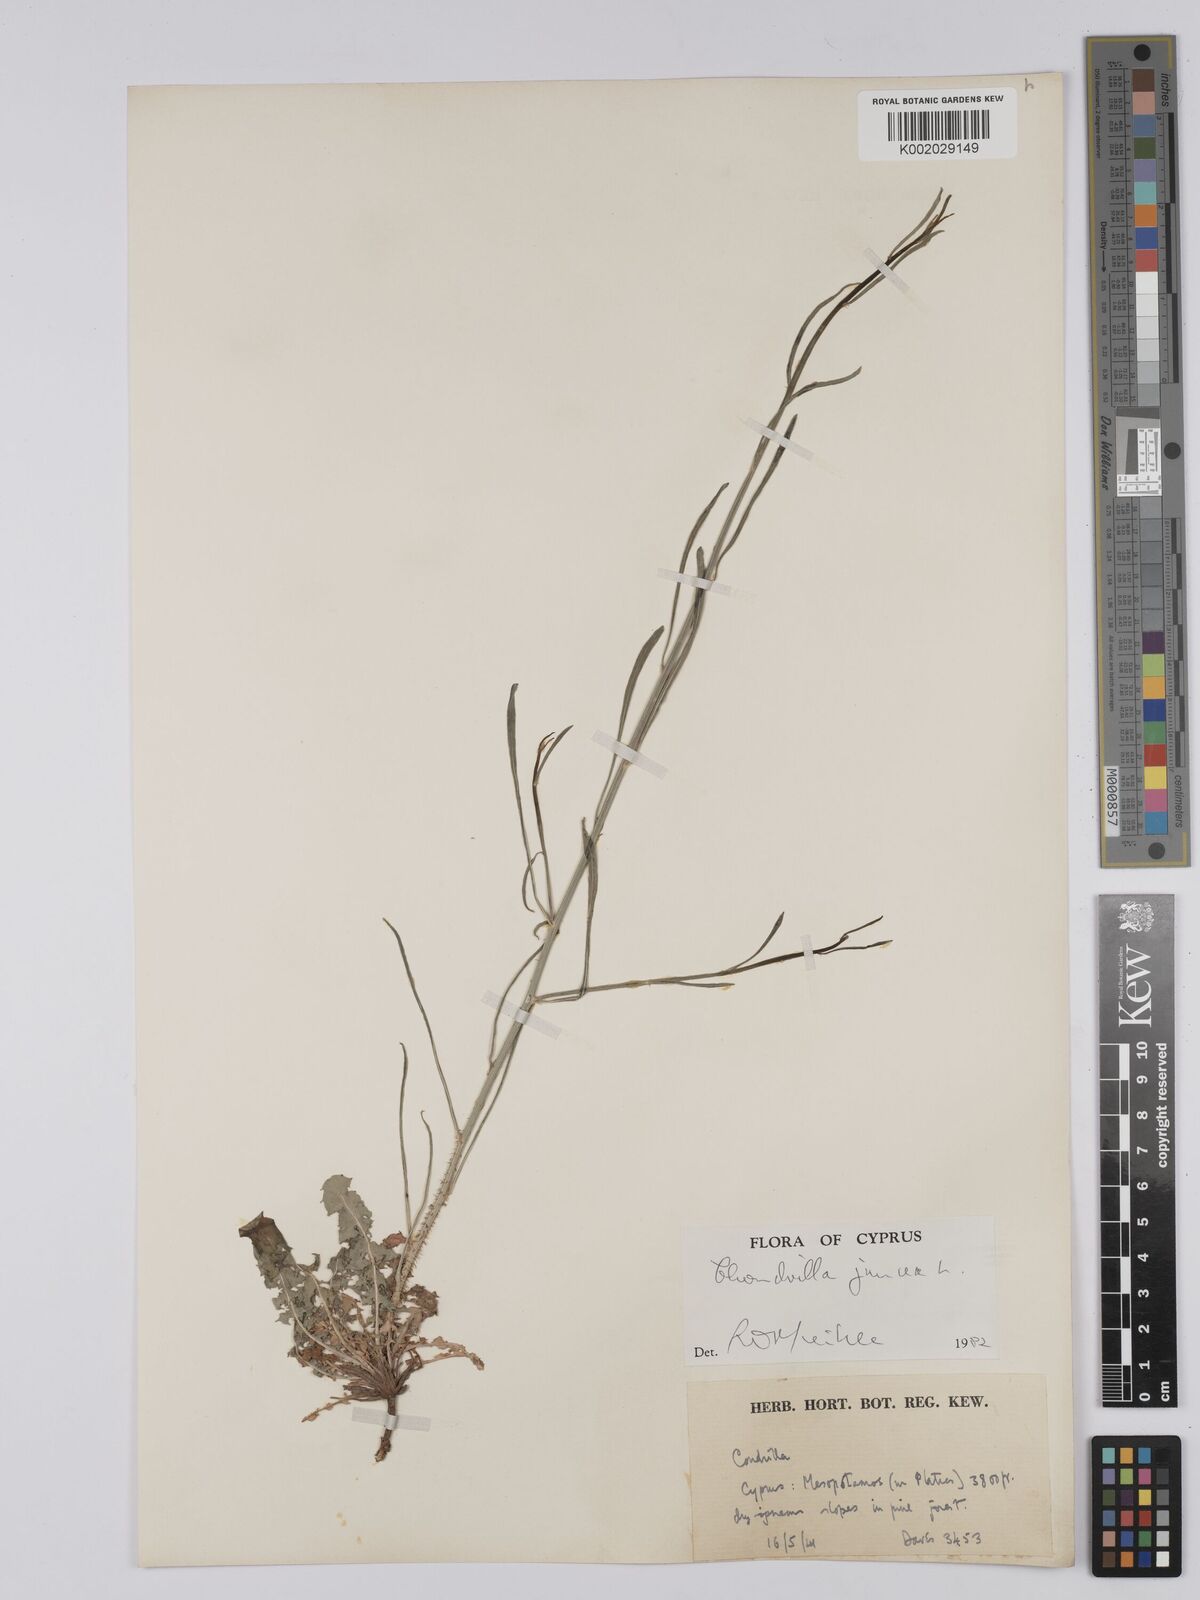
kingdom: Plantae
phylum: Tracheophyta
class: Magnoliopsida
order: Asterales
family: Asteraceae
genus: Chondrilla
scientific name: Chondrilla juncea
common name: Skeleton weed
